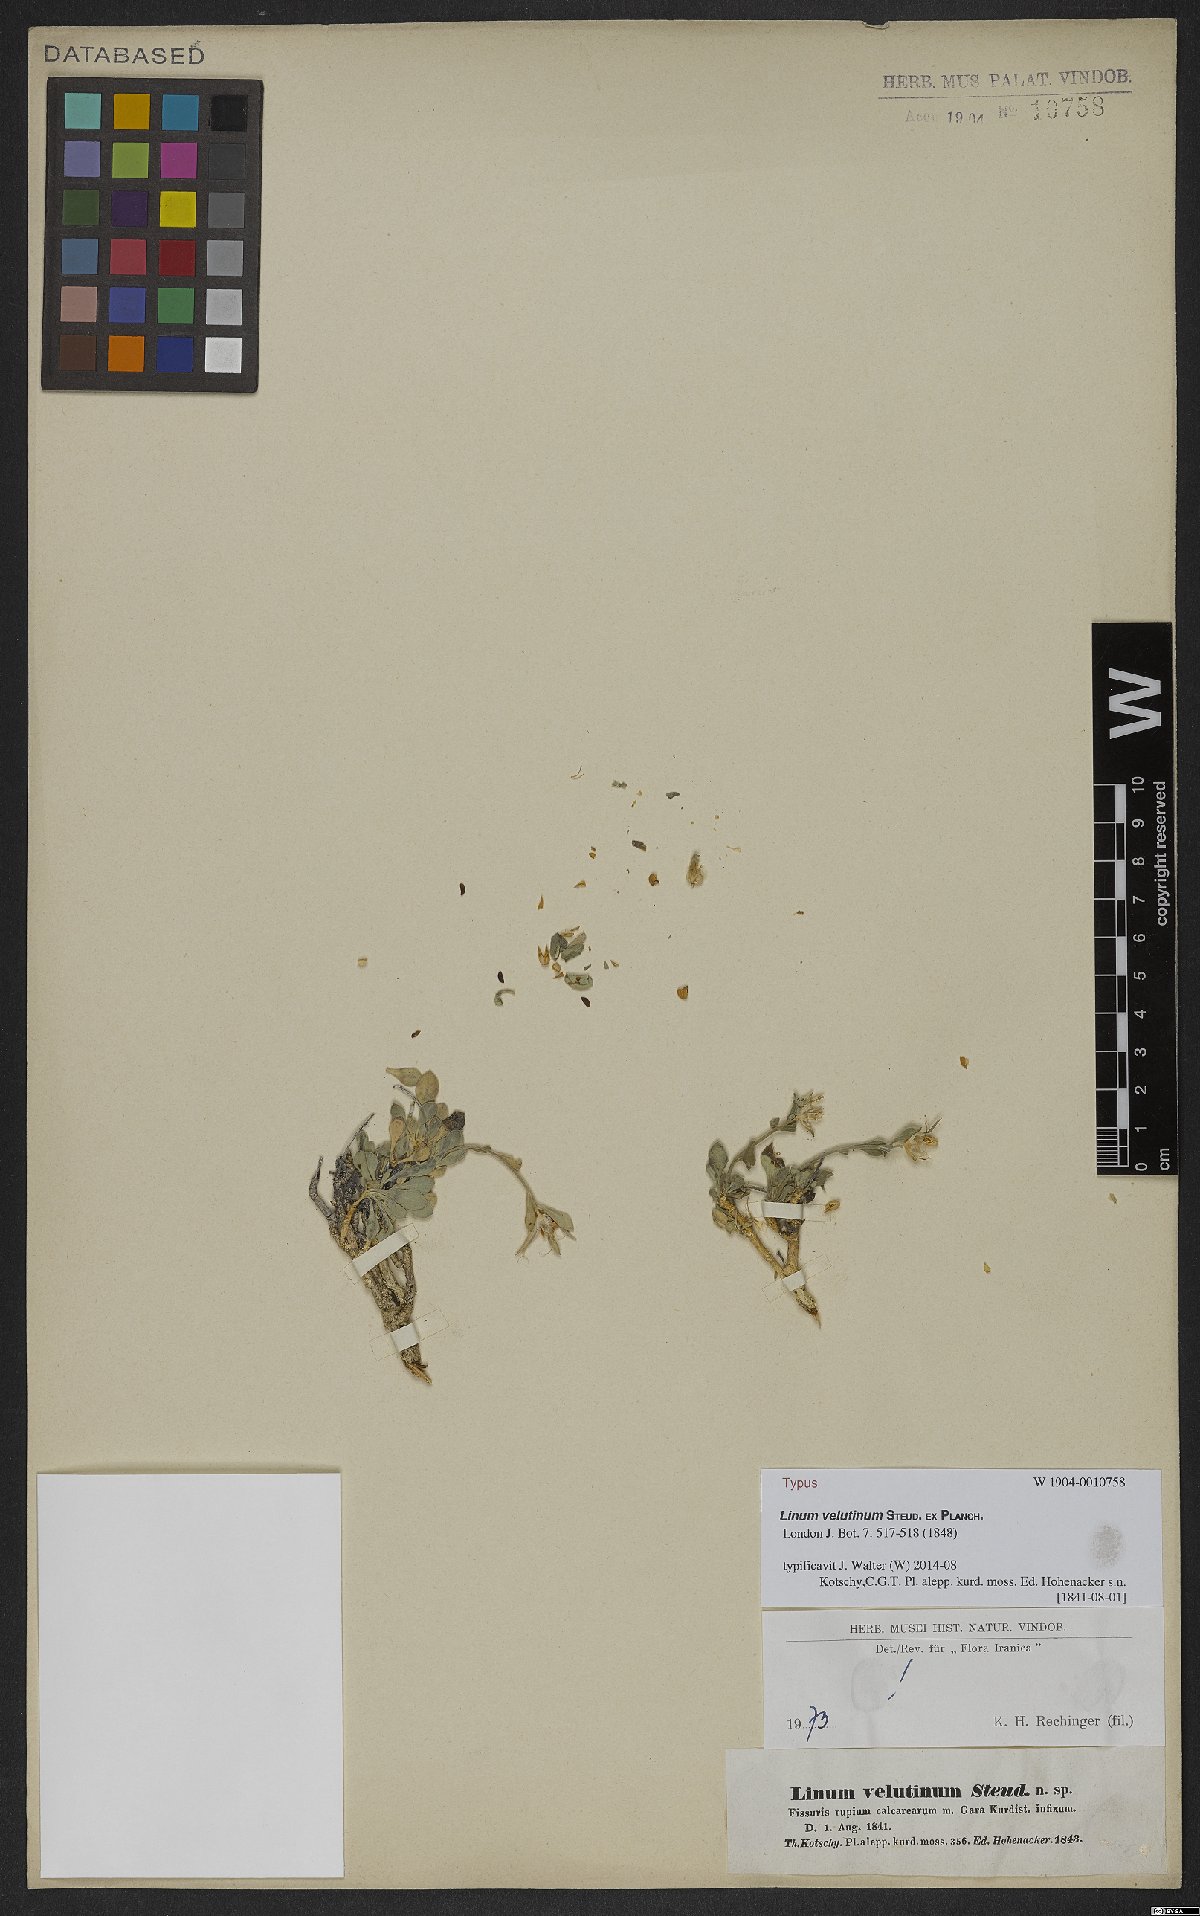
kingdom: Plantae
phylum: Tracheophyta
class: Magnoliopsida
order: Malpighiales
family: Linaceae
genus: Linum
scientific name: Linum velutinum
